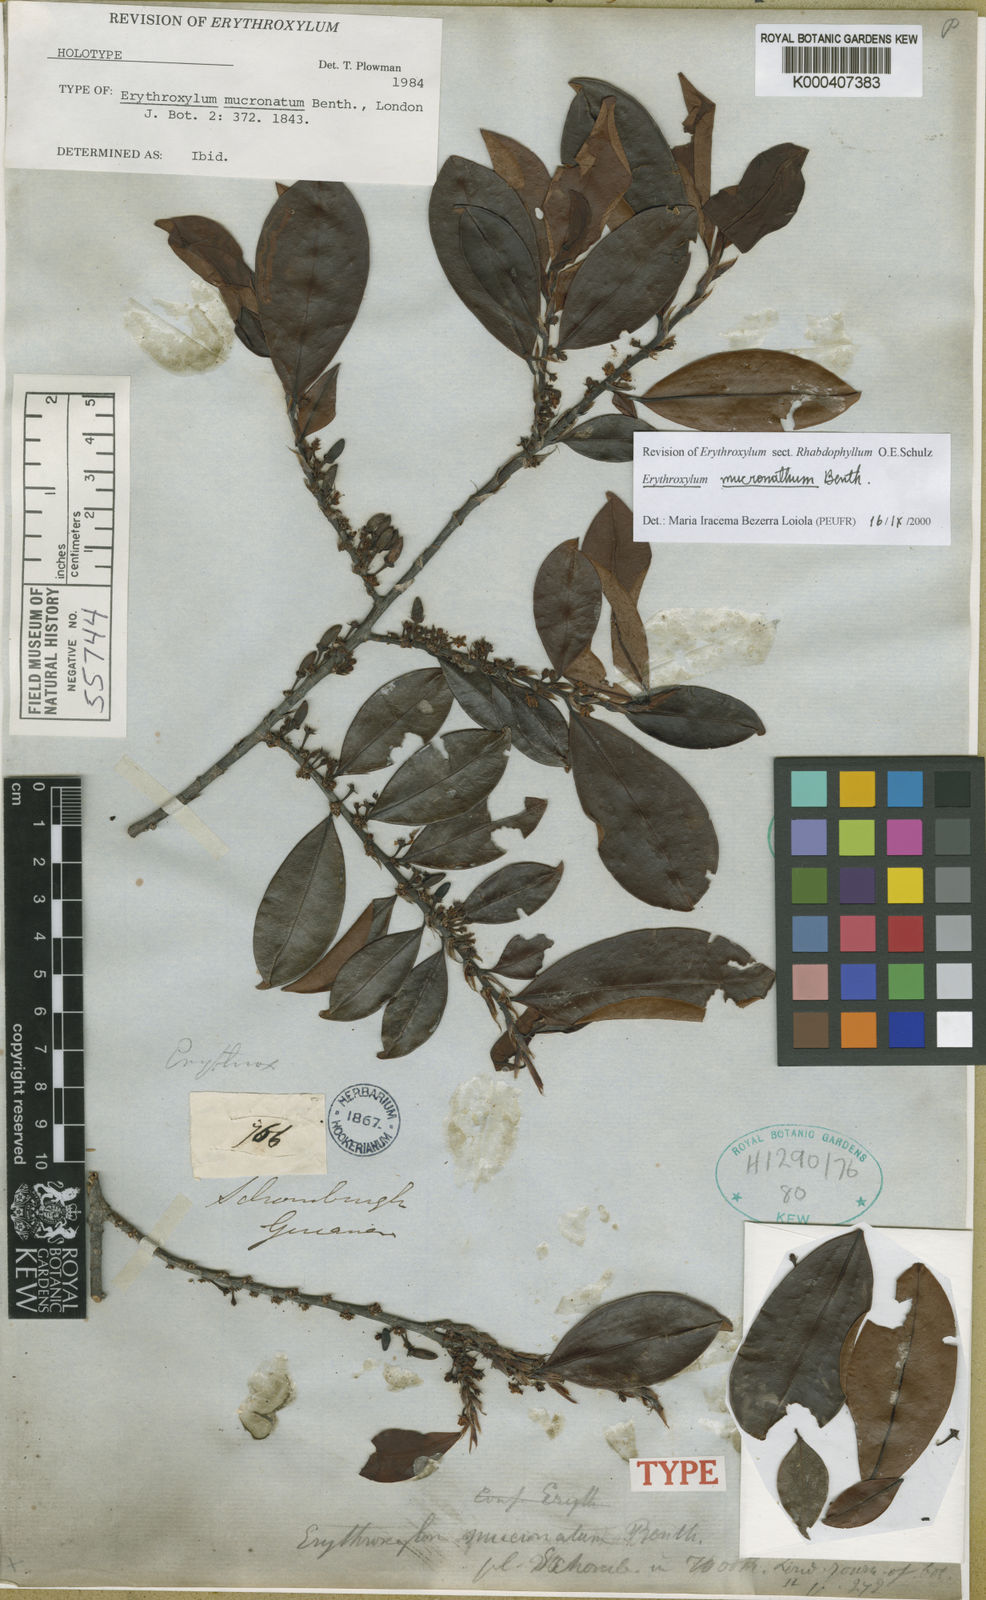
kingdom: Plantae
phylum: Tracheophyta
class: Magnoliopsida
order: Malpighiales
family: Erythroxylaceae
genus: Erythroxylum
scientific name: Erythroxylum mucronatum
